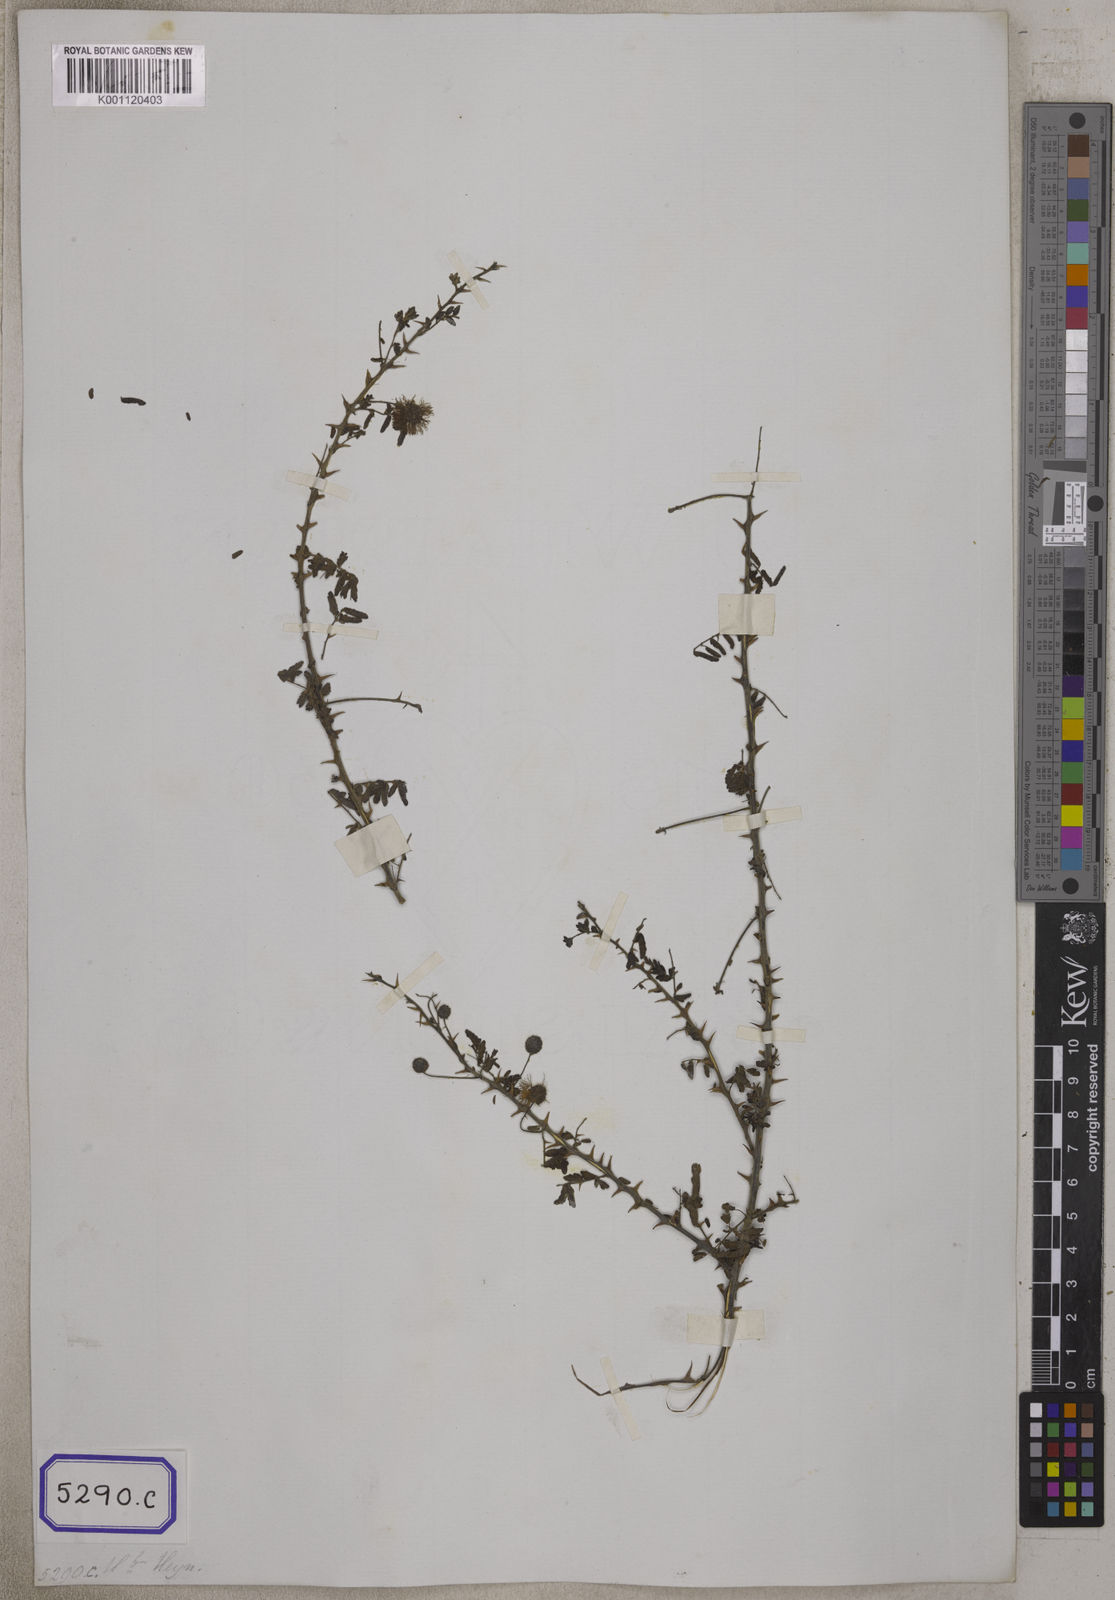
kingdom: Plantae
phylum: Tracheophyta
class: Magnoliopsida
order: Fabales
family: Fabaceae
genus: Mimosa
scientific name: Mimosa hamata
